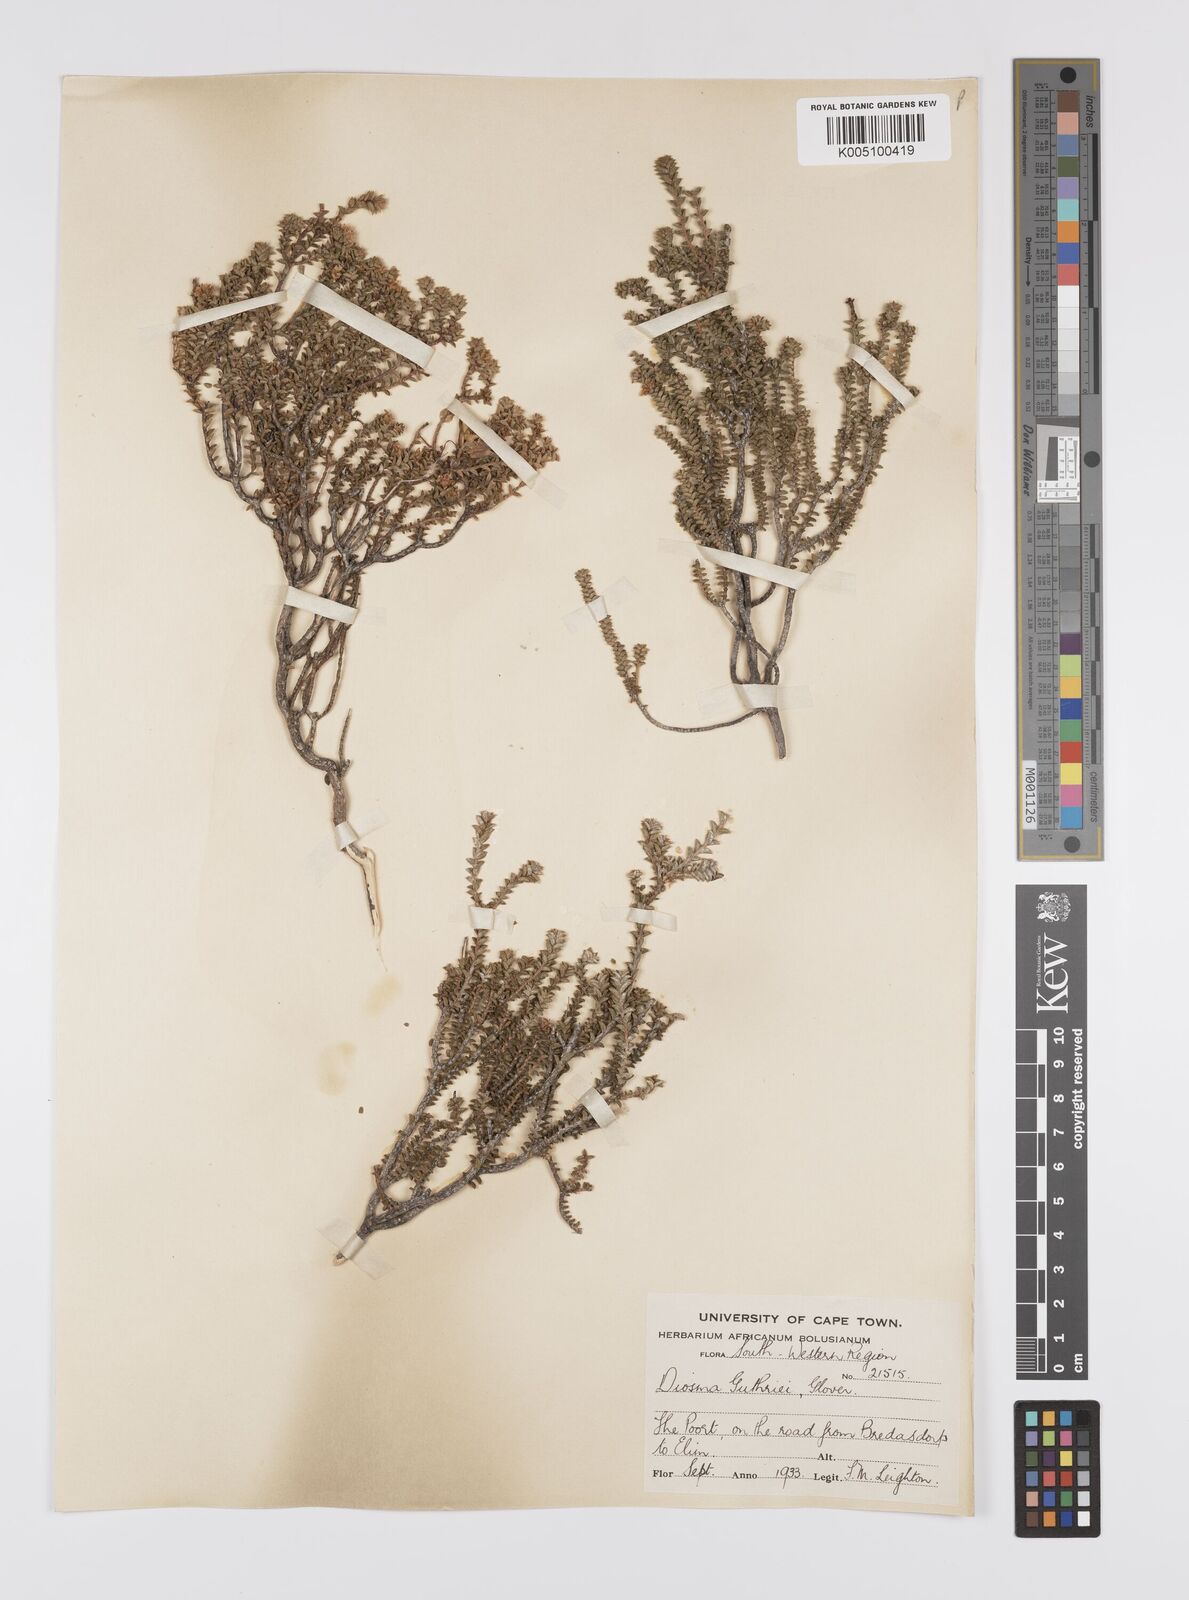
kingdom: Plantae
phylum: Tracheophyta
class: Magnoliopsida
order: Sapindales
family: Rutaceae
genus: Diosma
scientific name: Diosma guthriei
